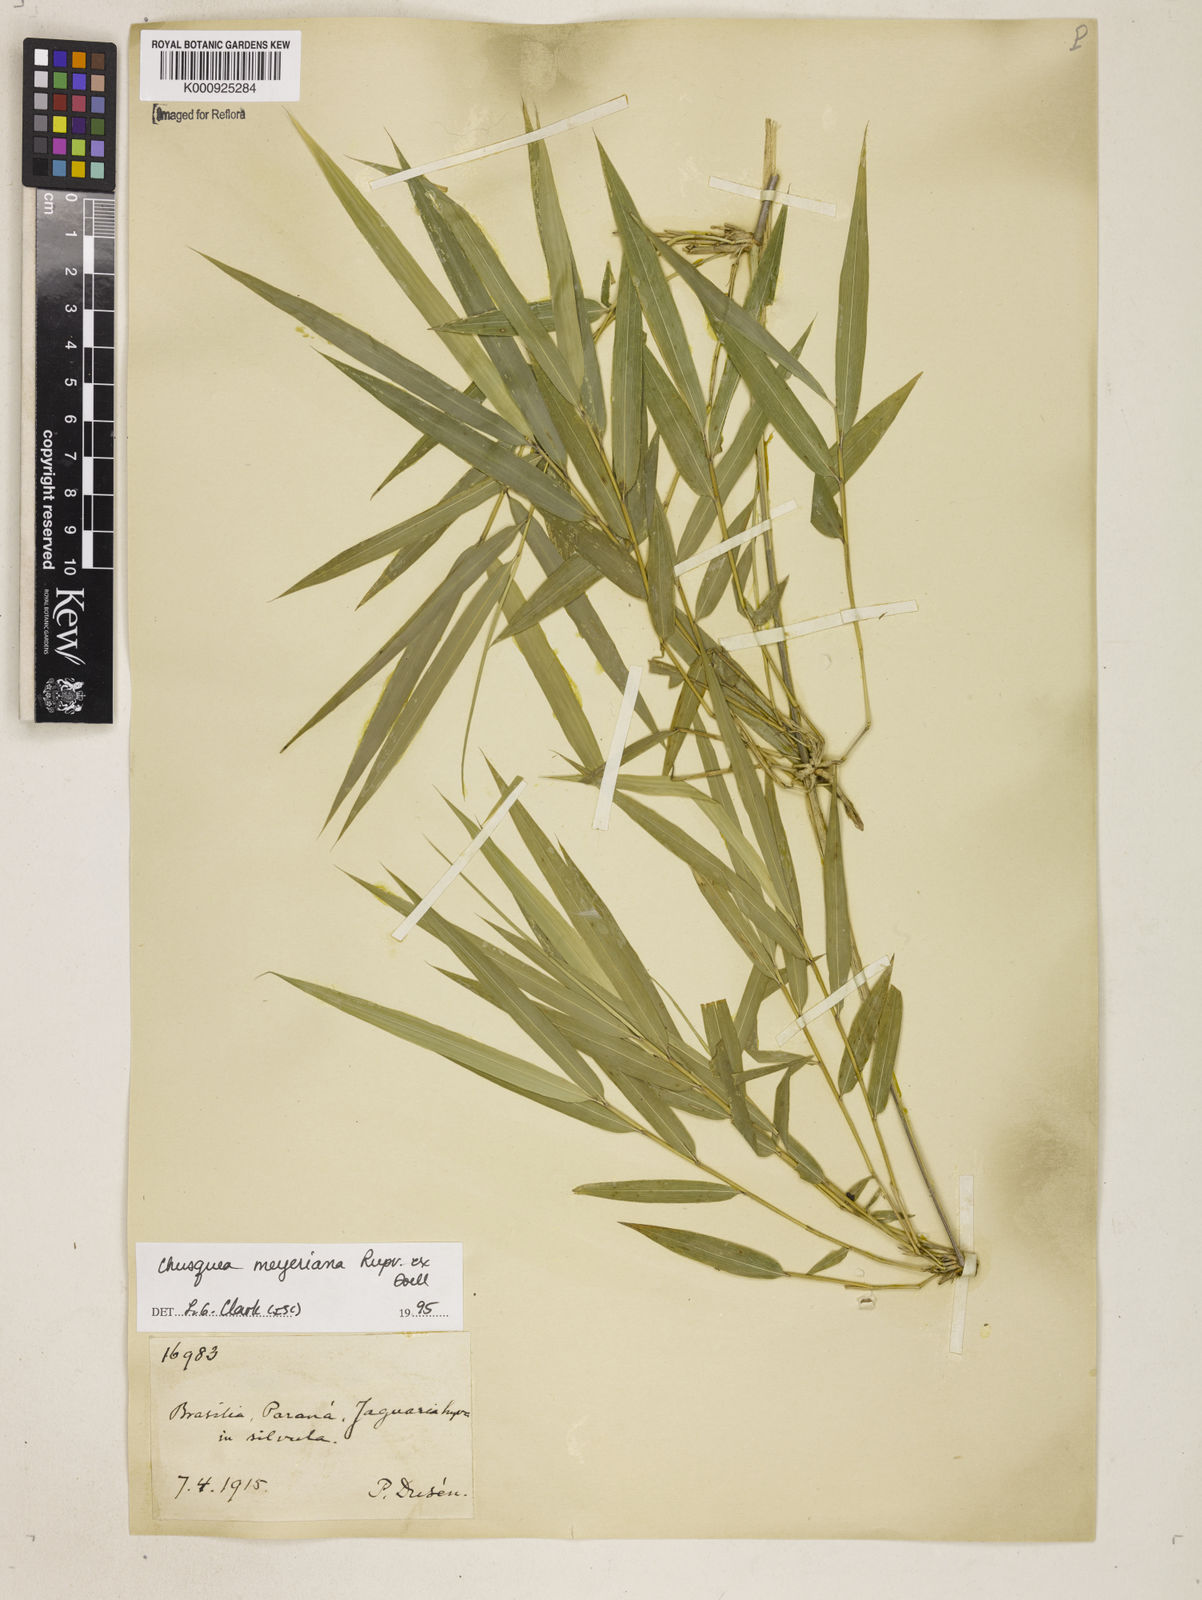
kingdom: Plantae
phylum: Tracheophyta
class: Liliopsida
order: Poales
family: Poaceae
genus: Chusquea
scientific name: Chusquea
